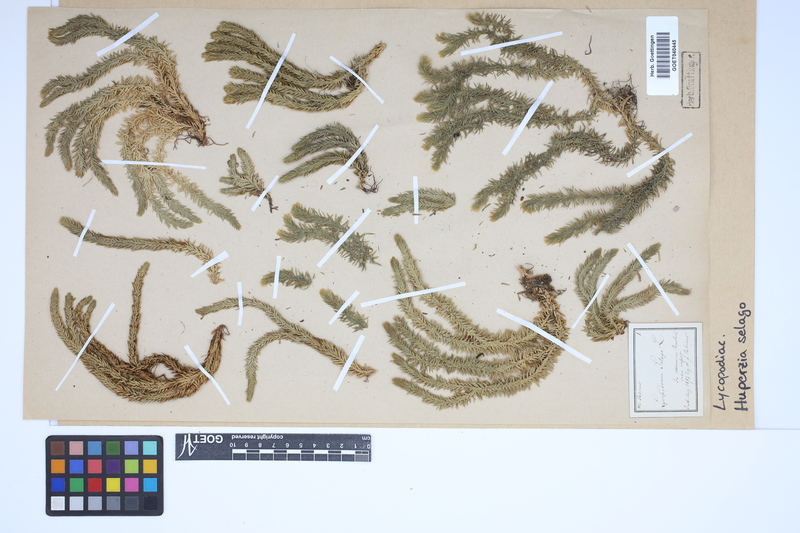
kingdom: Plantae
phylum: Tracheophyta
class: Lycopodiopsida
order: Lycopodiales
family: Lycopodiaceae
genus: Huperzia
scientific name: Huperzia selago
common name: Northern firmoss
